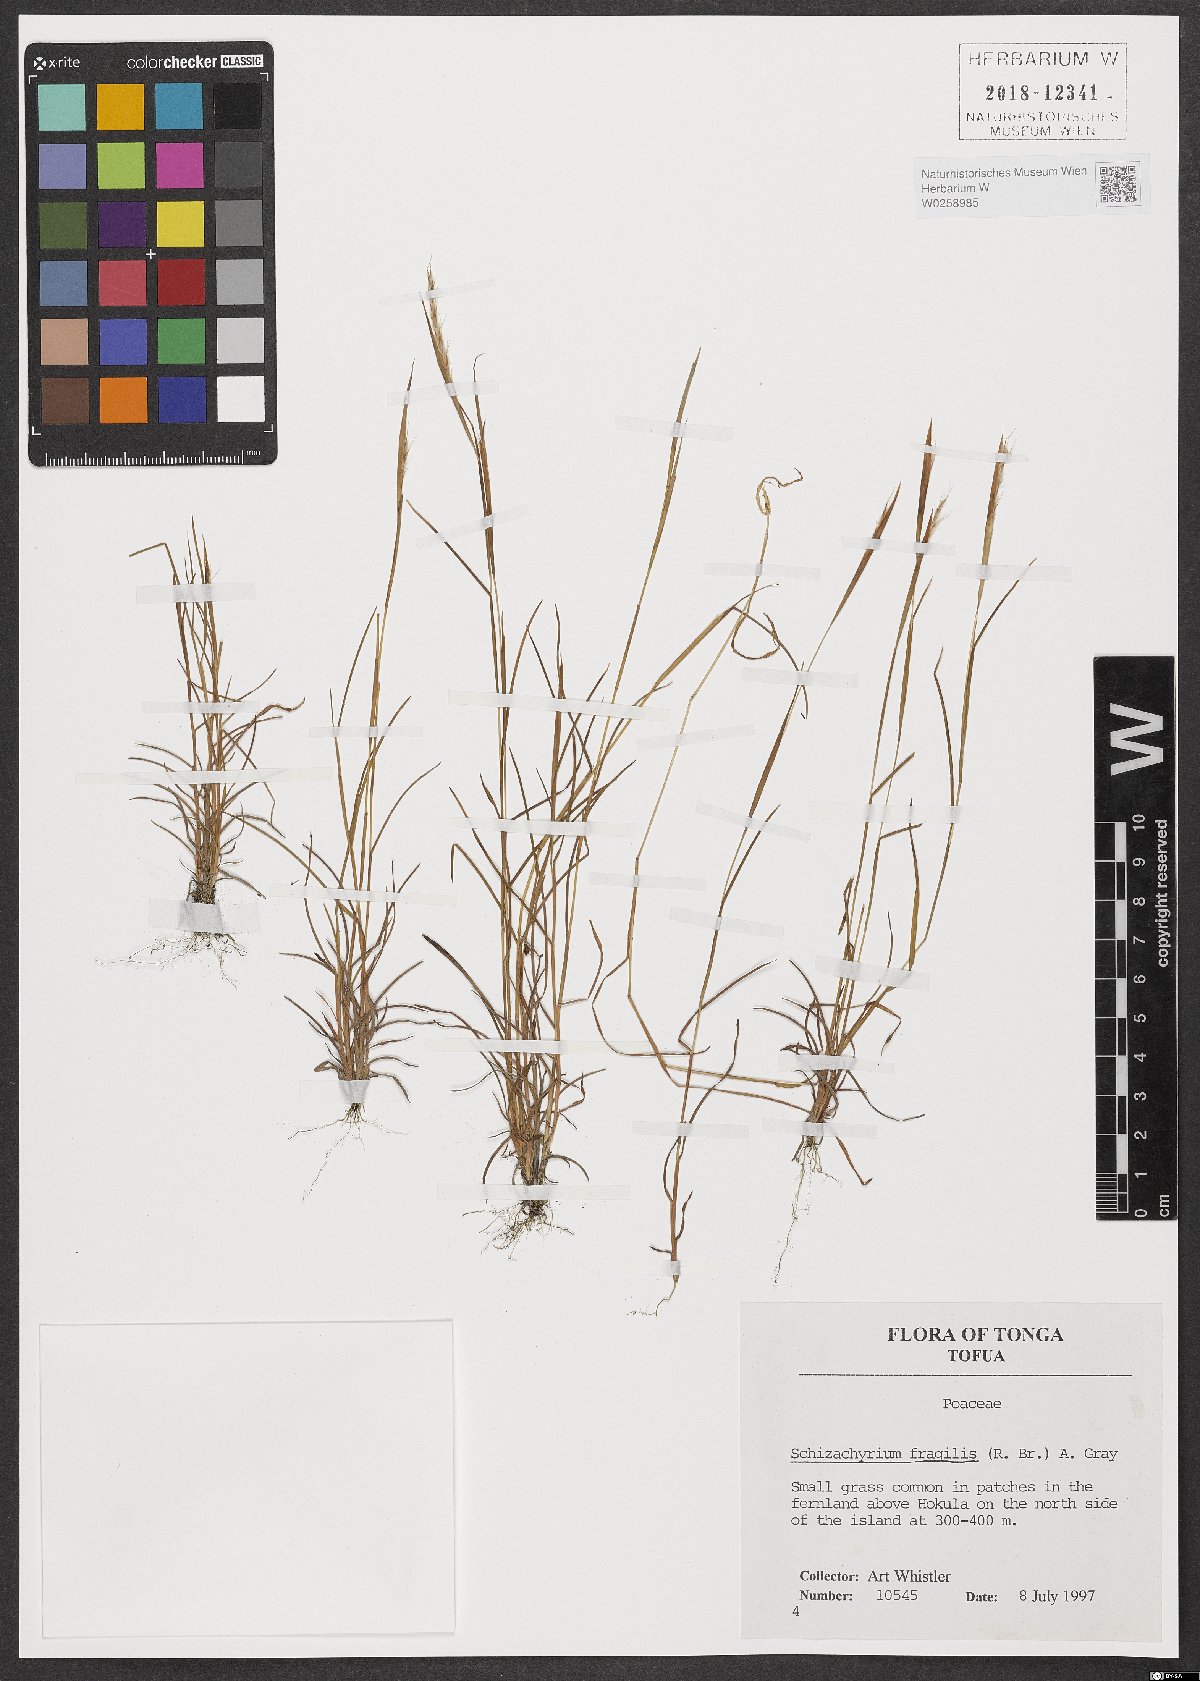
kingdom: Plantae
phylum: Tracheophyta
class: Liliopsida
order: Poales
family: Poaceae
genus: Schizachyrium
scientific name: Schizachyrium fragile
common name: Red spathe grass
